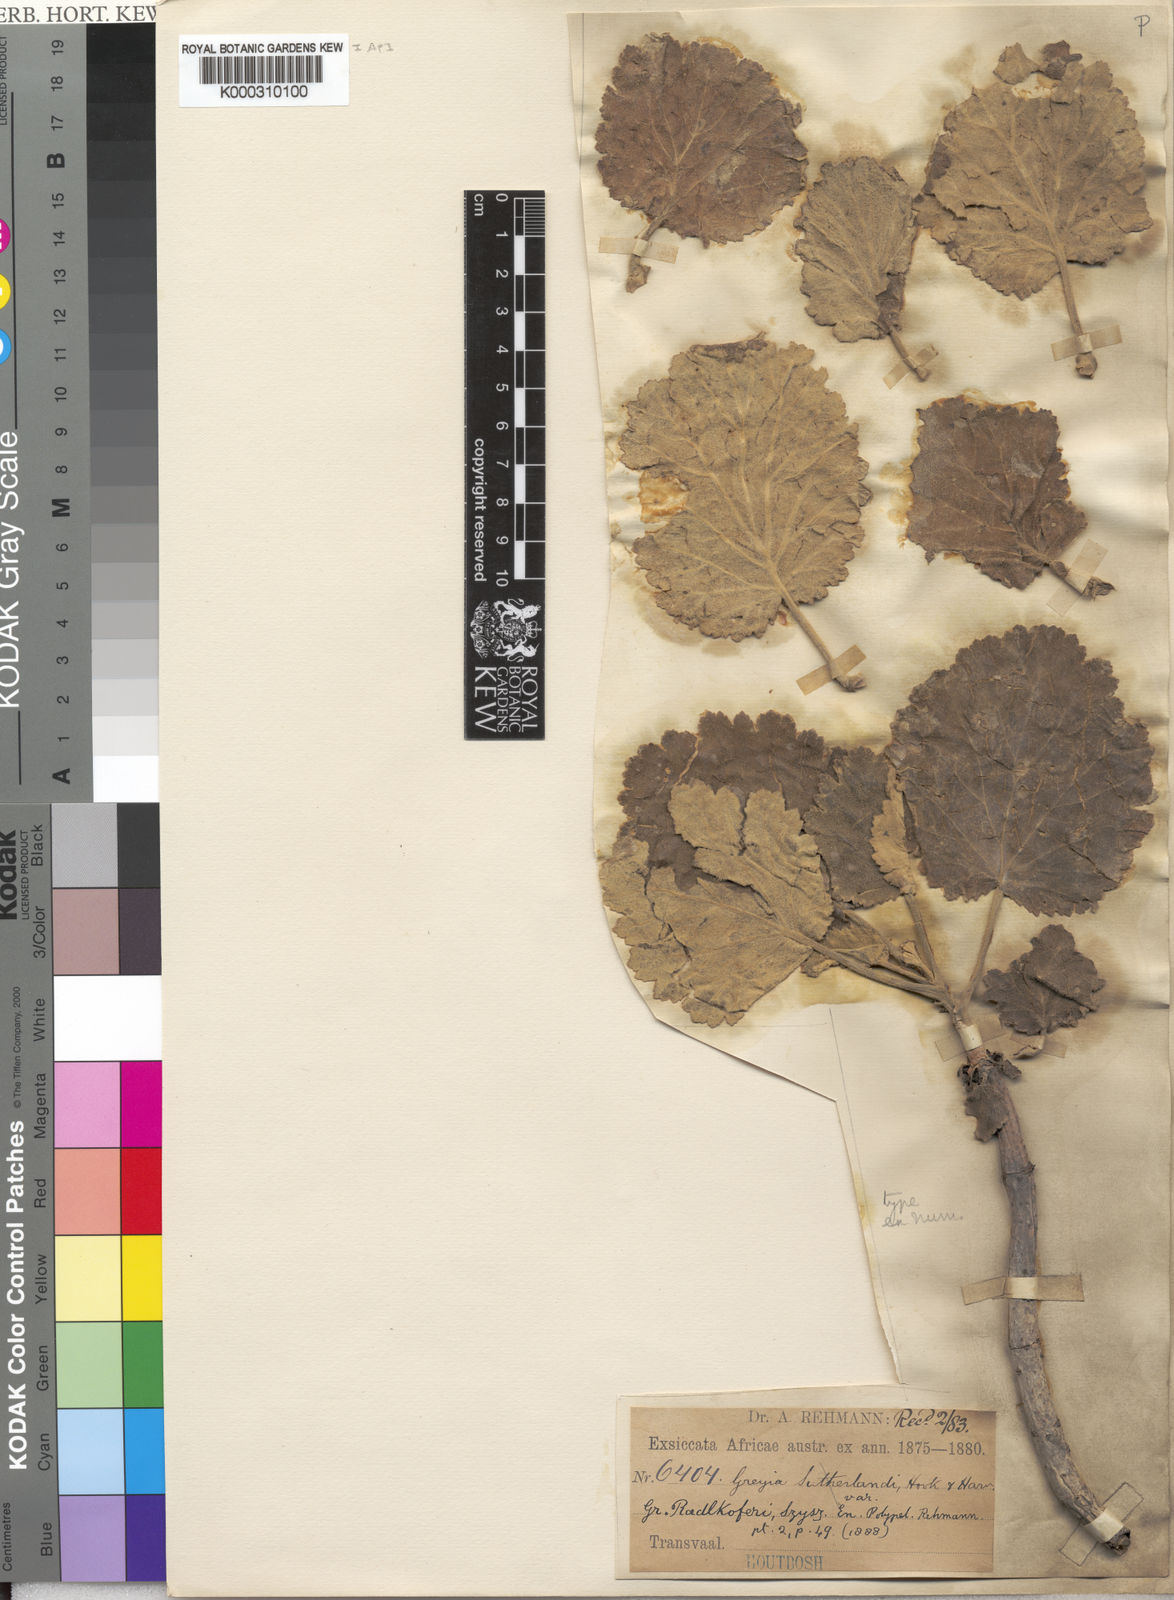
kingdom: Plantae
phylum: Tracheophyta
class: Magnoliopsida
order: Geraniales
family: Francoaceae
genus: Greyia
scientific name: Greyia radlkoferi
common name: Natal bottlebrush
